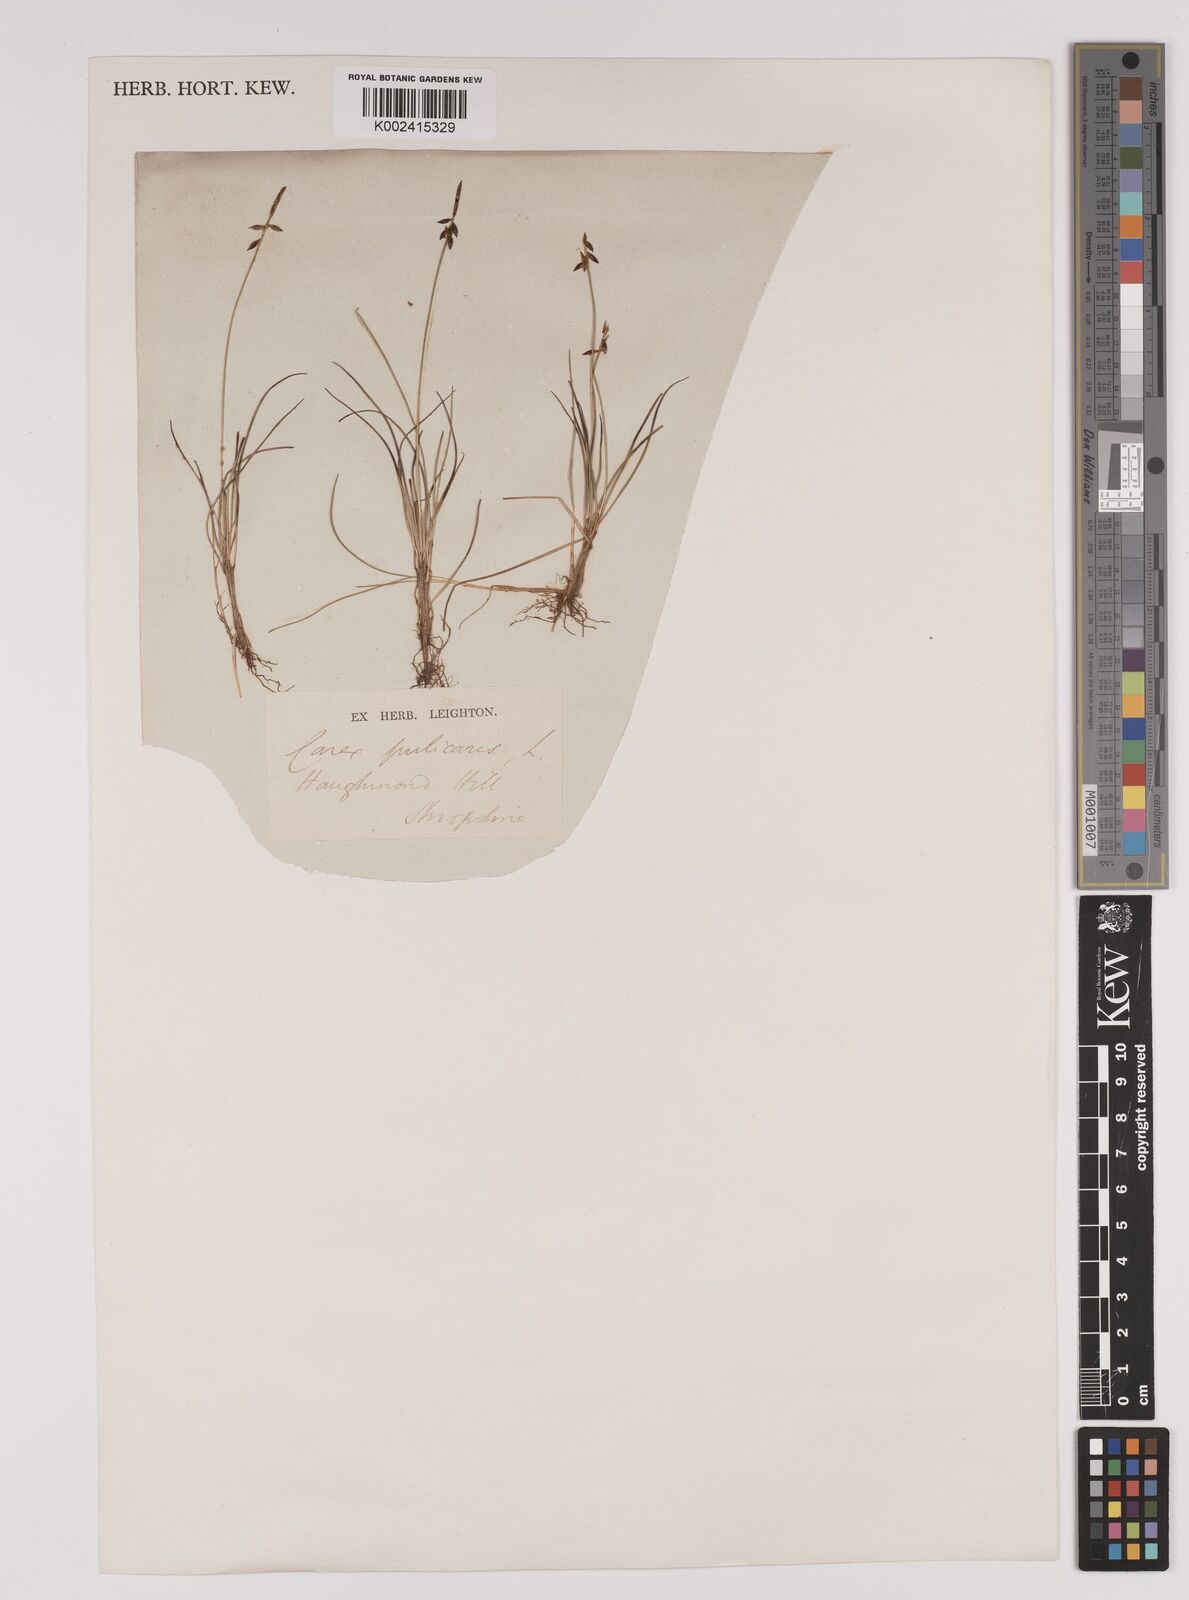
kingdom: Plantae
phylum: Tracheophyta
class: Liliopsida
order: Poales
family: Cyperaceae
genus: Carex
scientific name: Carex pulicaris
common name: Flea sedge
